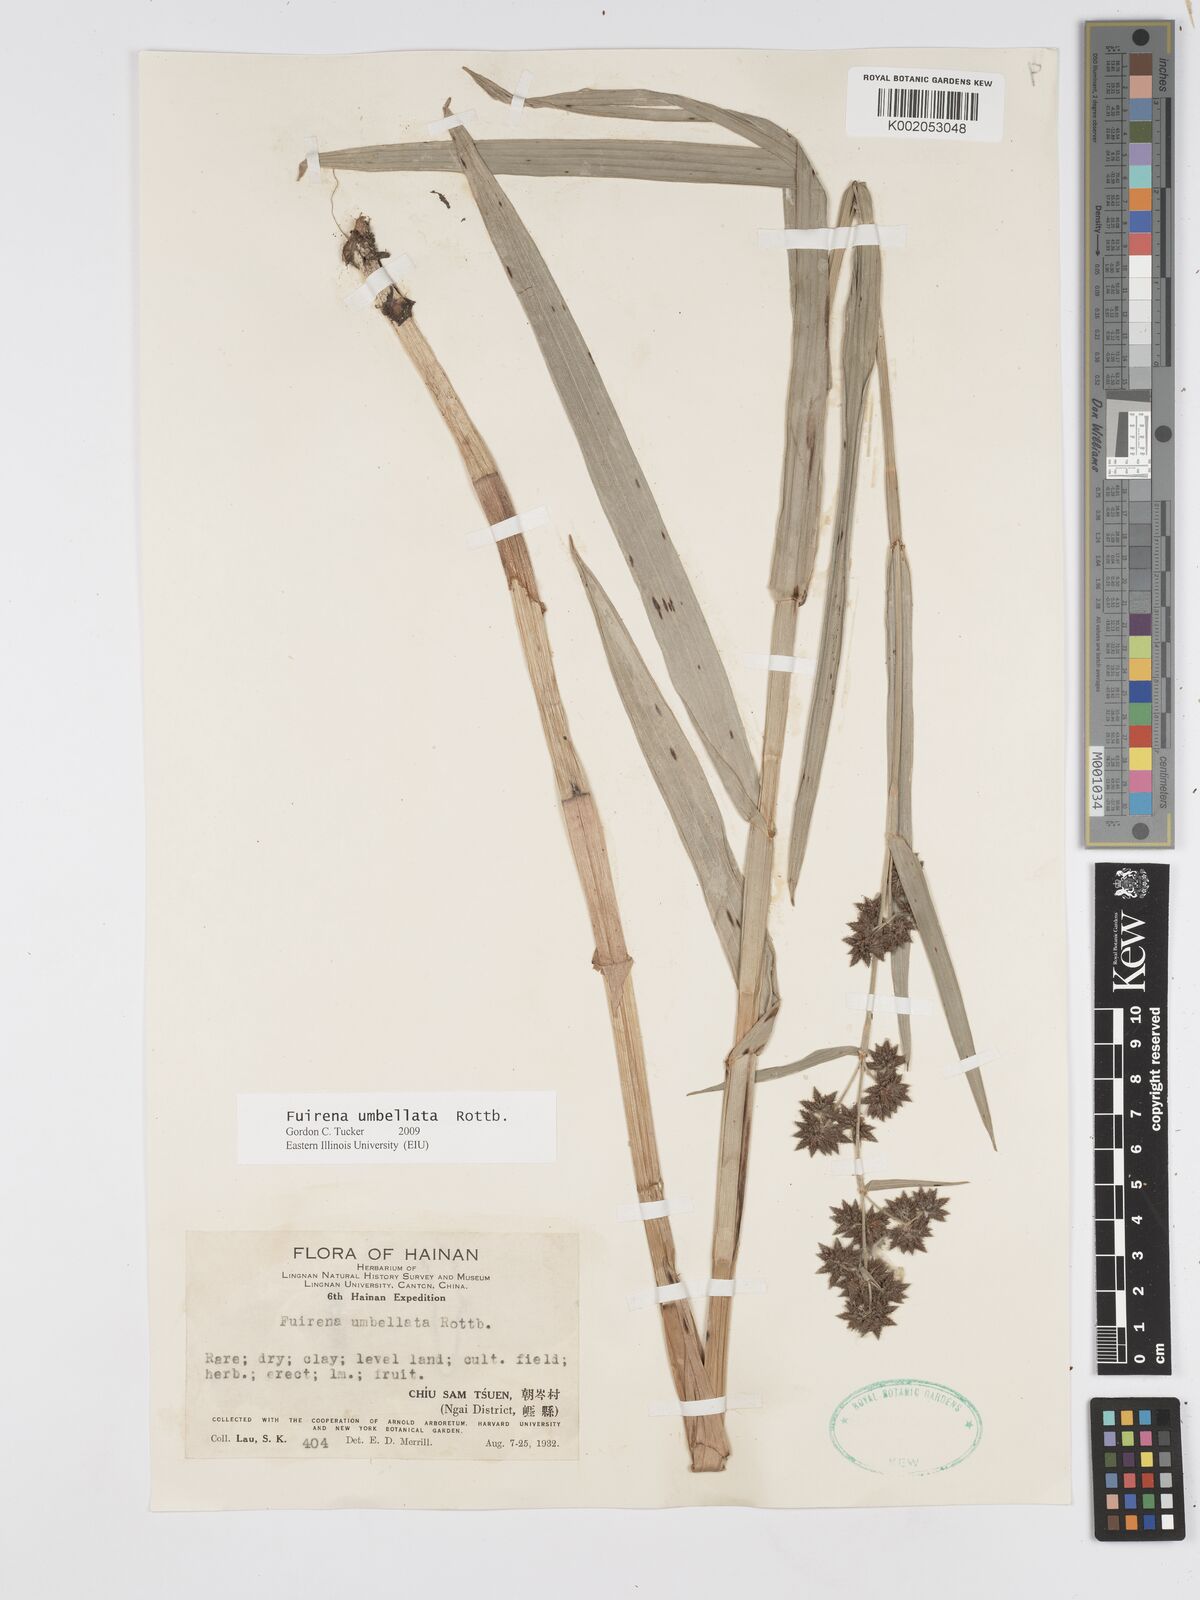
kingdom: Plantae
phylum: Tracheophyta
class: Liliopsida
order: Poales
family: Cyperaceae
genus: Fuirena
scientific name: Fuirena umbellata
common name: Yefen
